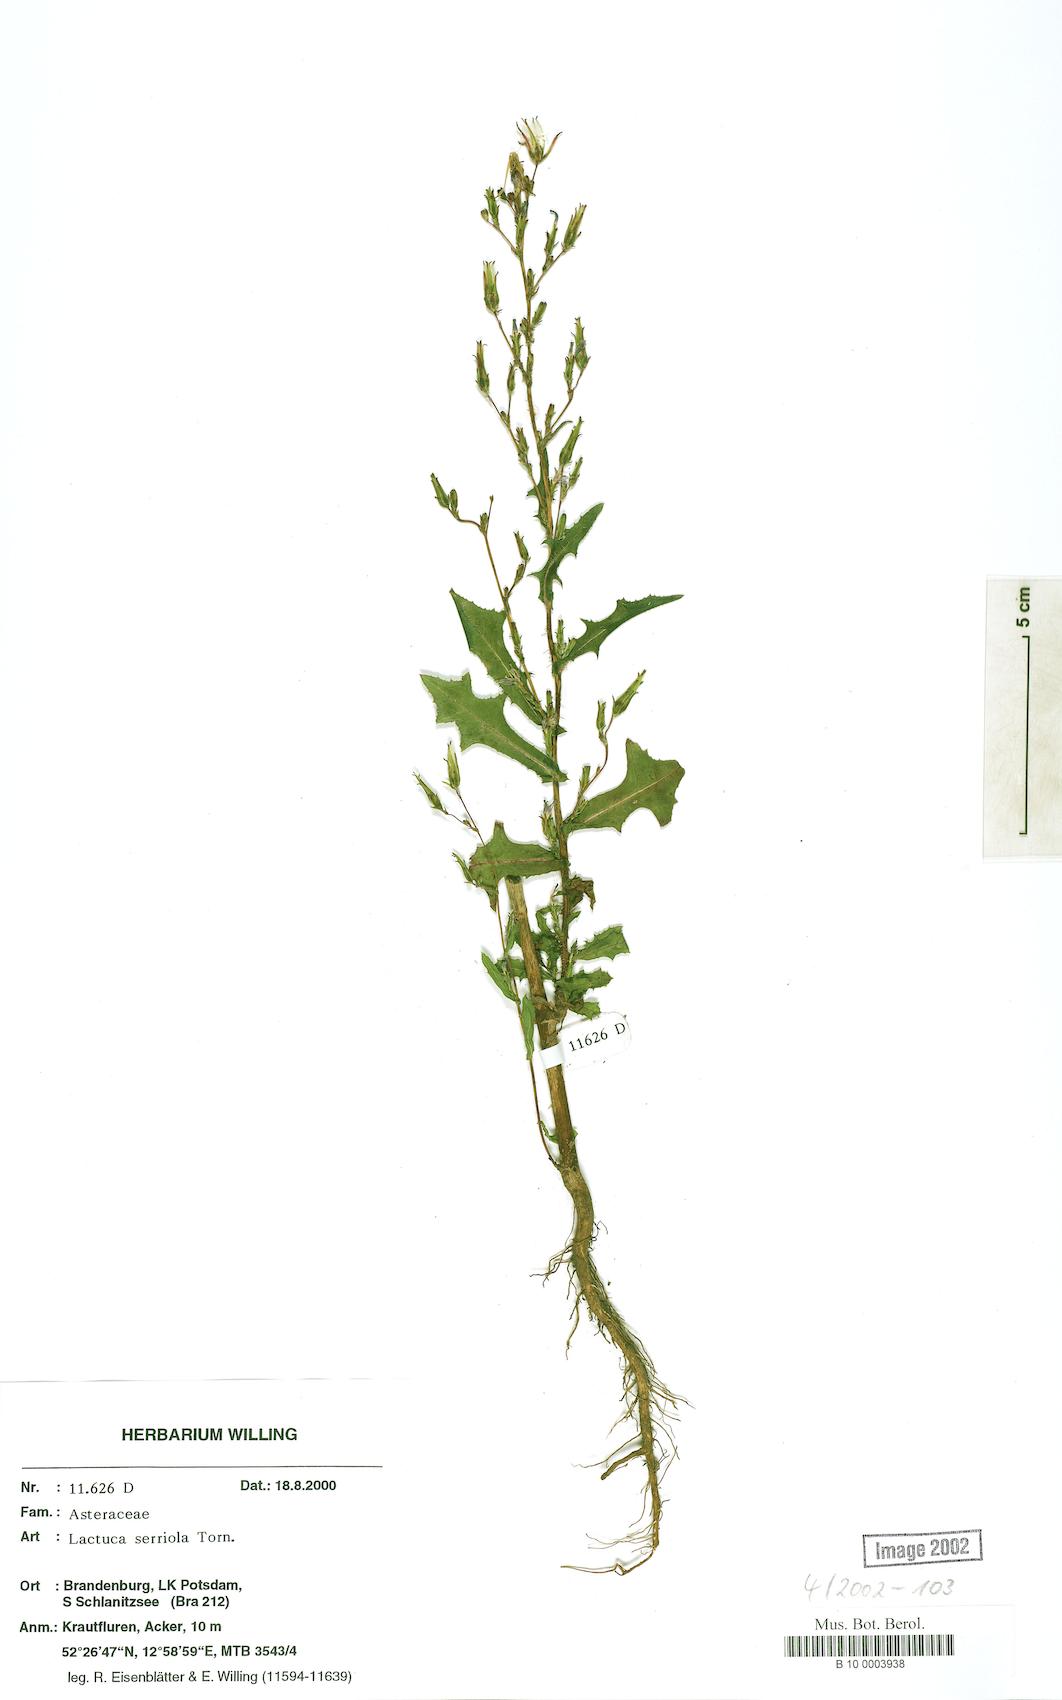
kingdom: Plantae
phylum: Tracheophyta
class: Magnoliopsida
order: Asterales
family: Asteraceae
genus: Lactuca
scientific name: Lactuca serriola
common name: Prickly lettuce
